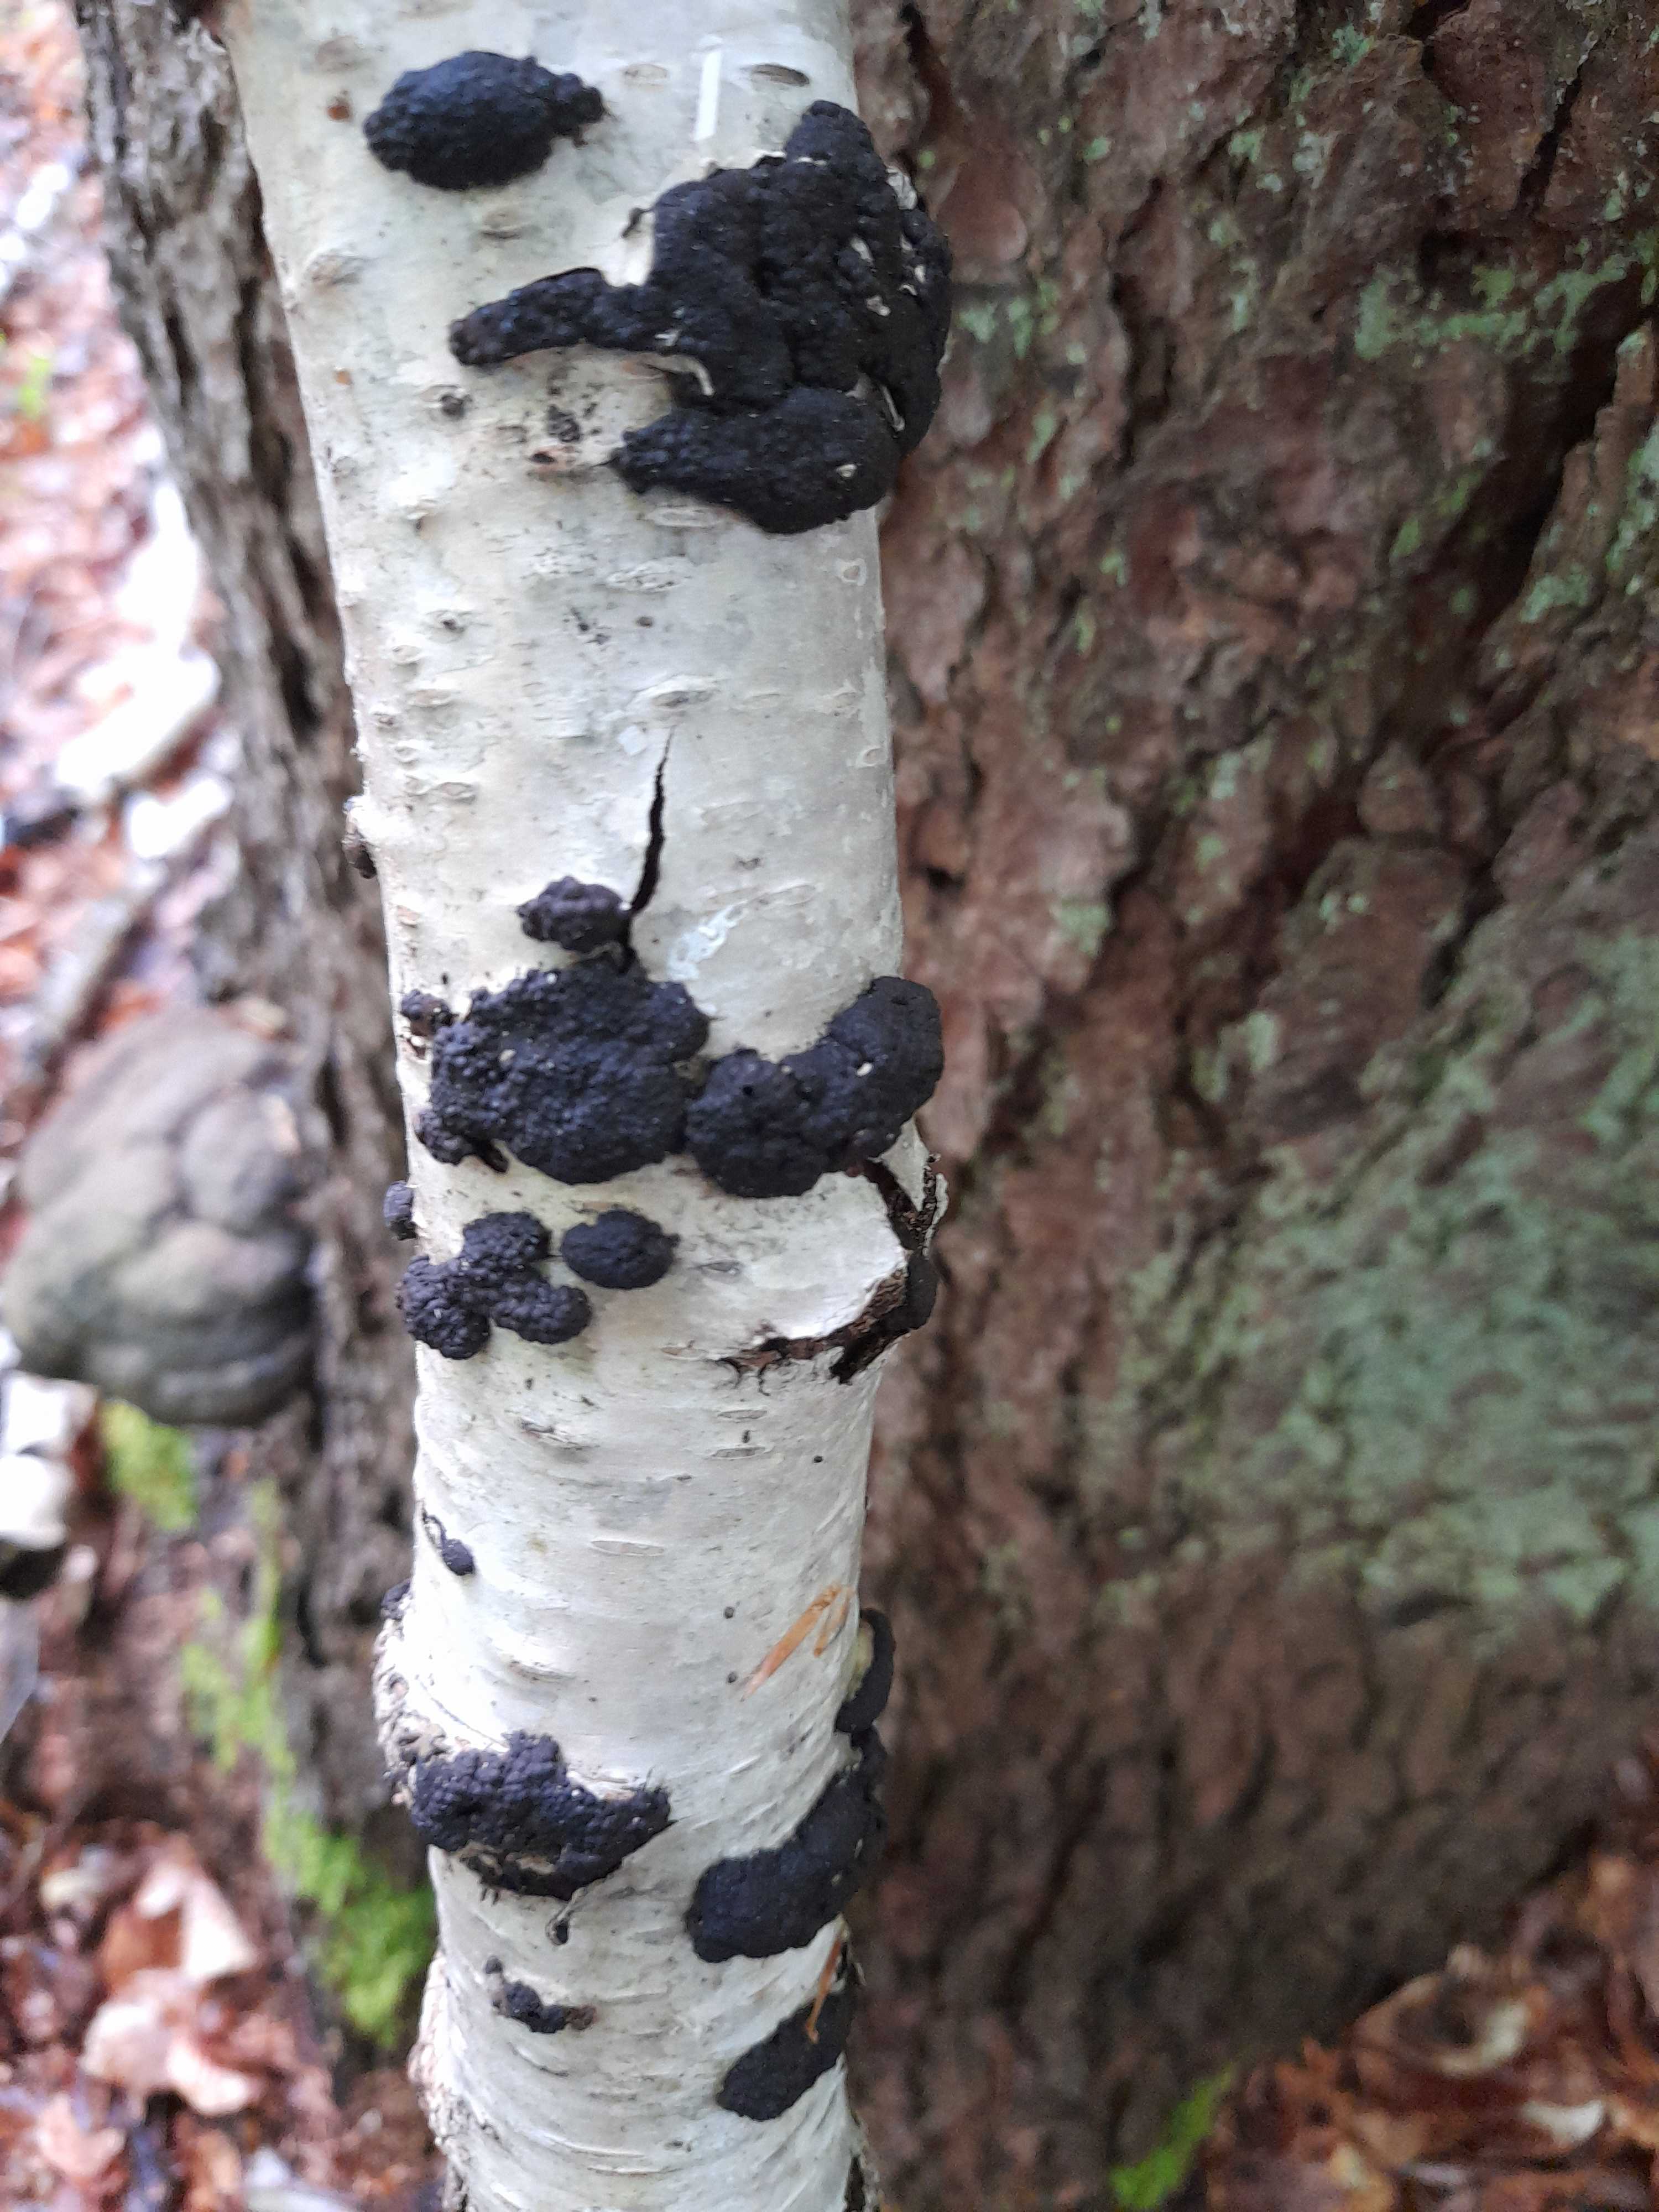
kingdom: Fungi
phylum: Ascomycota
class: Sordariomycetes
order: Xylariales
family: Hypoxylaceae
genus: Jackrogersella
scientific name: Jackrogersella multiformis
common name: foranderlig kulbær
